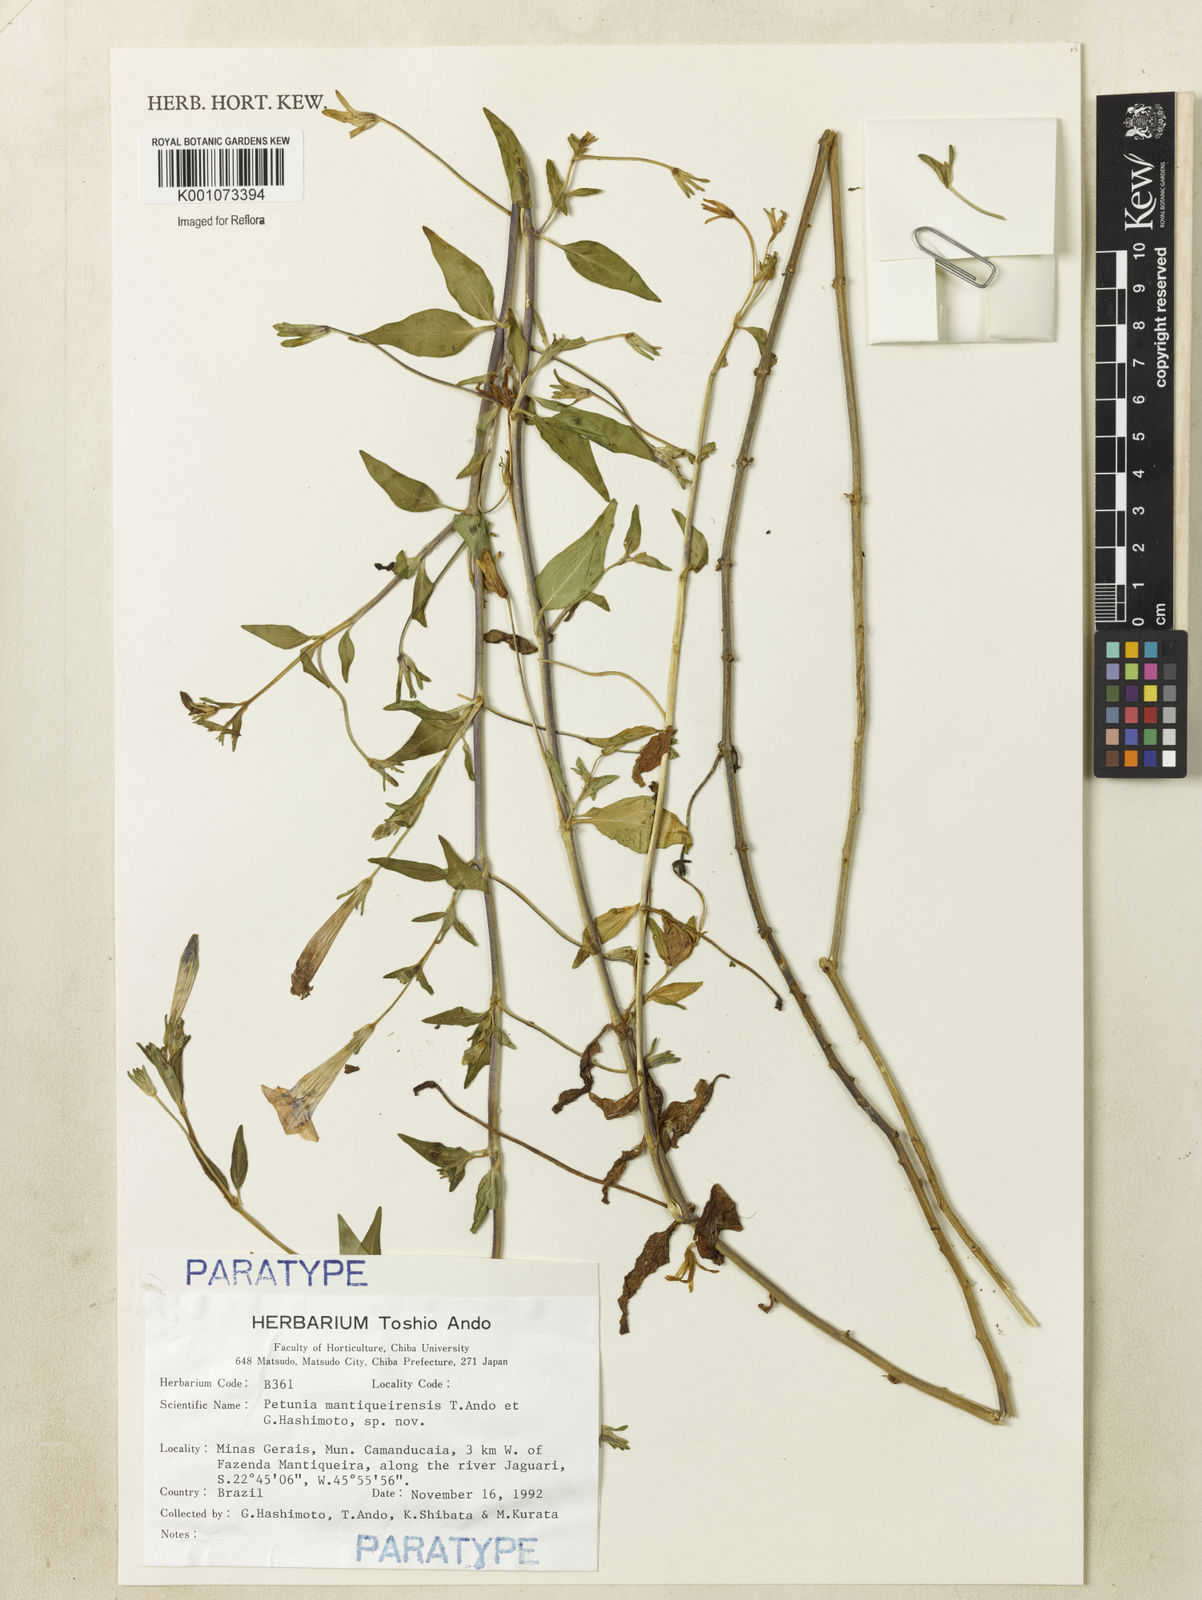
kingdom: Plantae
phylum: Tracheophyta
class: Magnoliopsida
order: Solanales
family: Solanaceae
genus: Petunia
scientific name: Petunia mantiqueirensis
